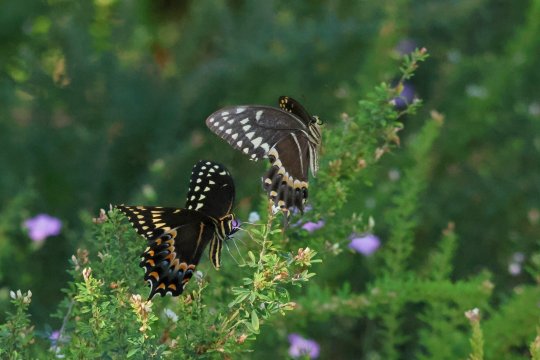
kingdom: Animalia
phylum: Arthropoda
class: Insecta
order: Lepidoptera
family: Papilionidae
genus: Pterourus
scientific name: Pterourus palamedes
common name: Palamedes Swallowtail
